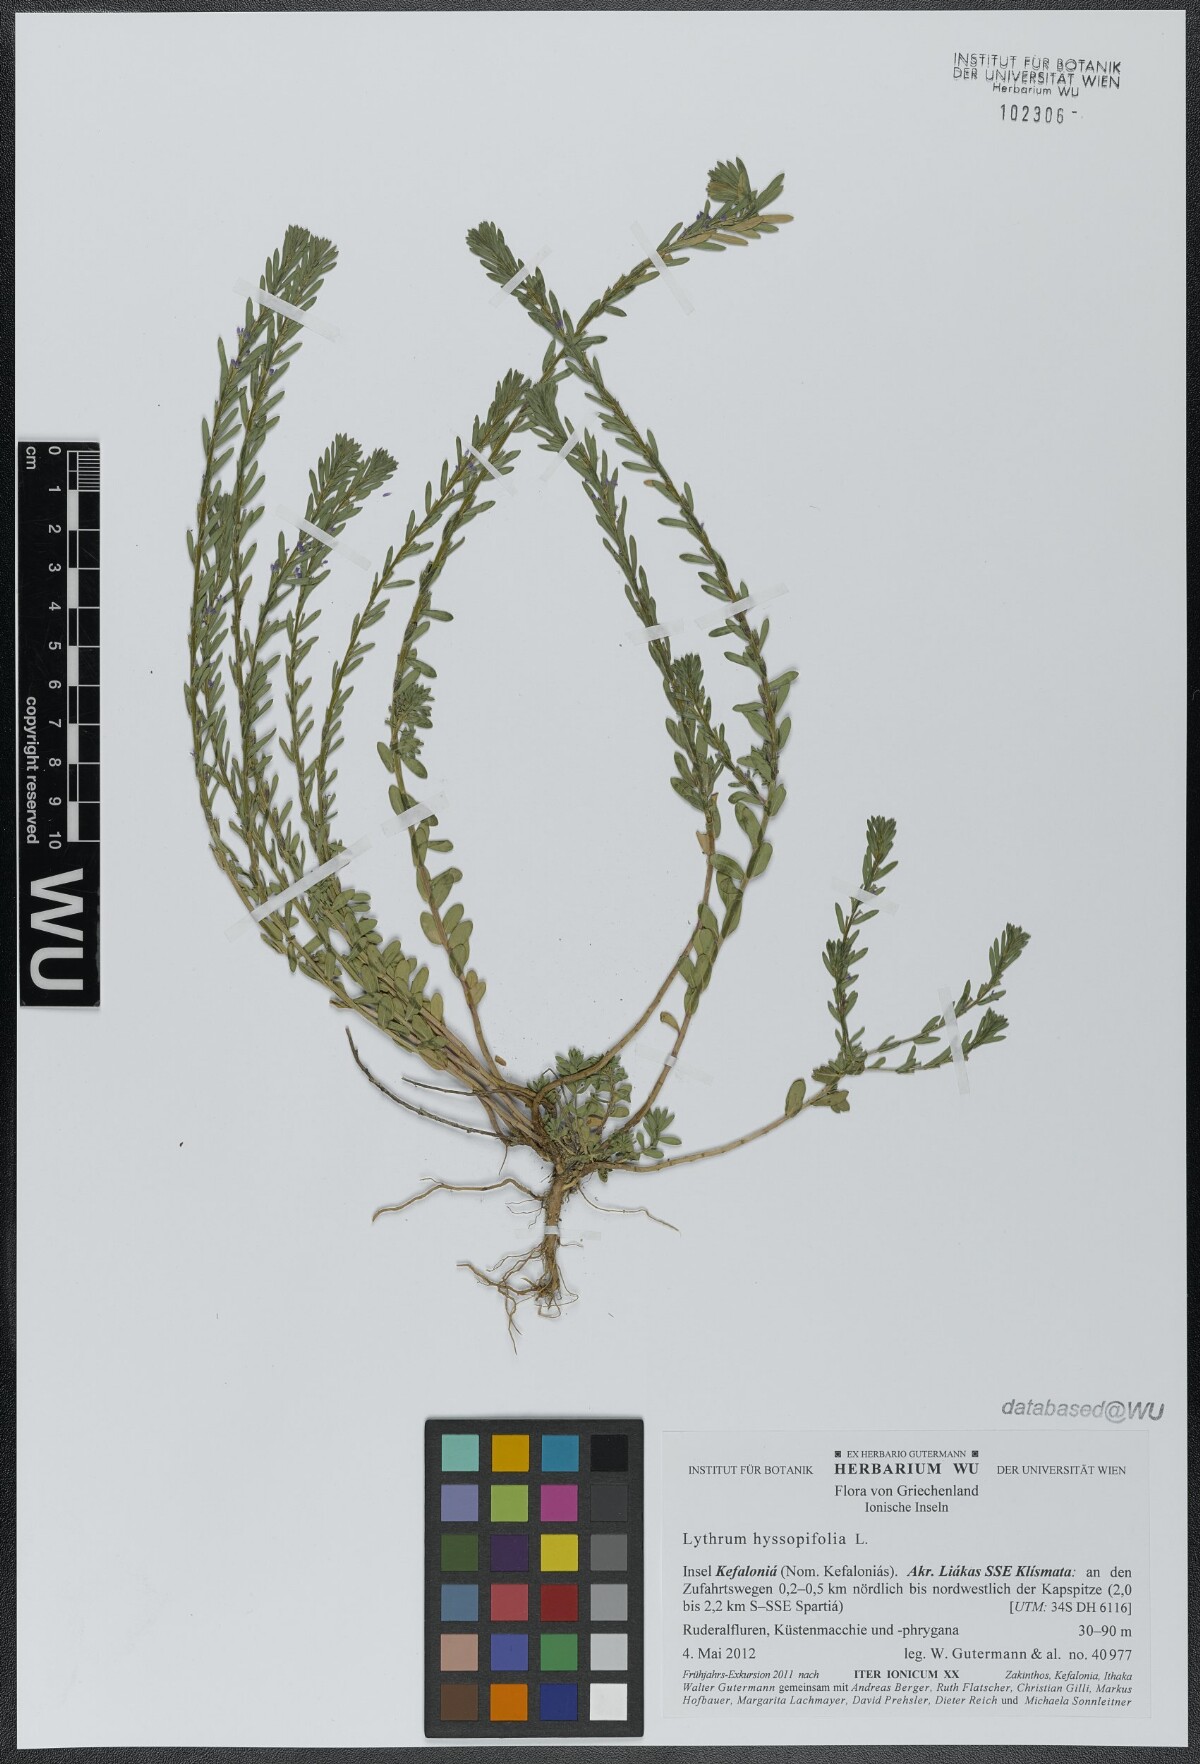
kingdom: Plantae
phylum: Tracheophyta
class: Magnoliopsida
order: Myrtales
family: Lythraceae
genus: Lythrum
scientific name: Lythrum hyssopifolia
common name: Grass-poly
